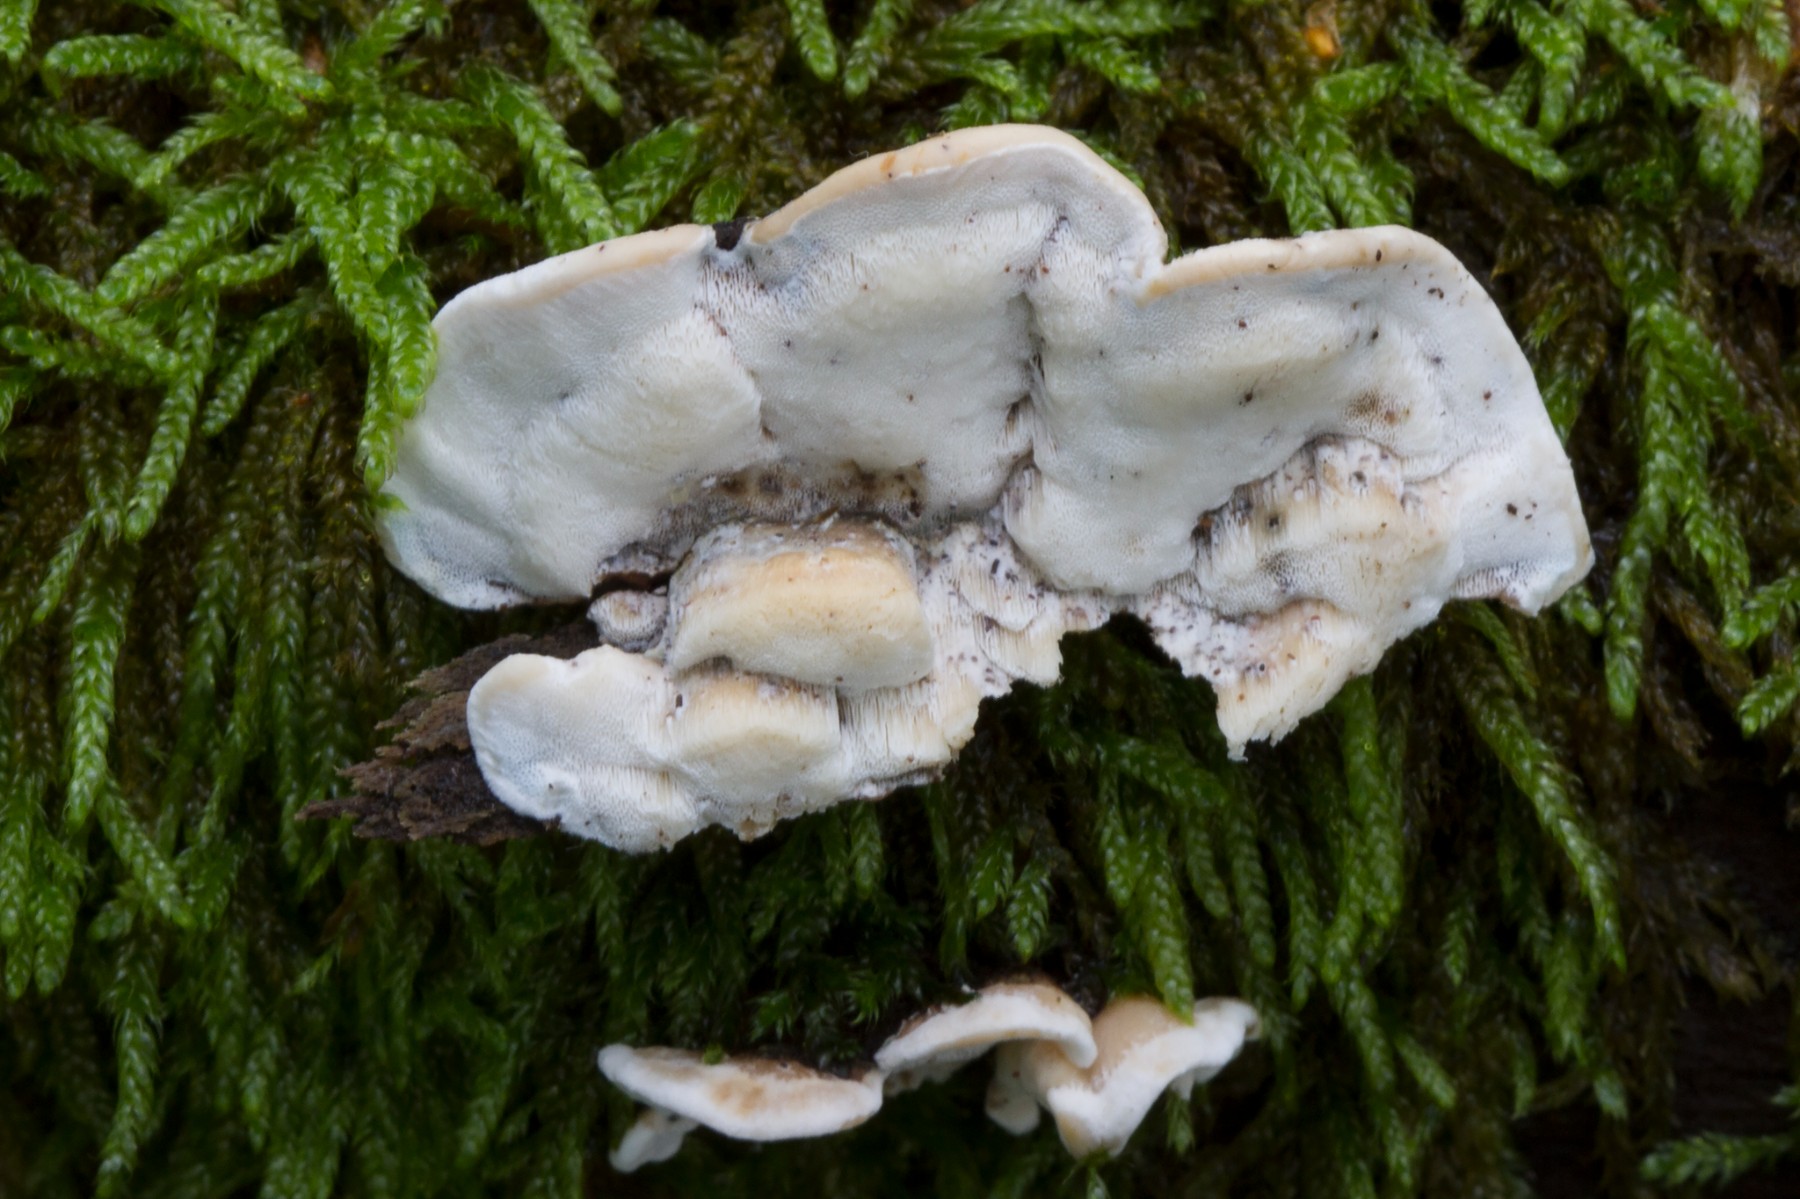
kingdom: Fungi
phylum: Basidiomycota
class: Agaricomycetes
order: Polyporales
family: Incrustoporiaceae
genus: Skeletocutis
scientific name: Skeletocutis nemoralis
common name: stor krystalporesvamp
